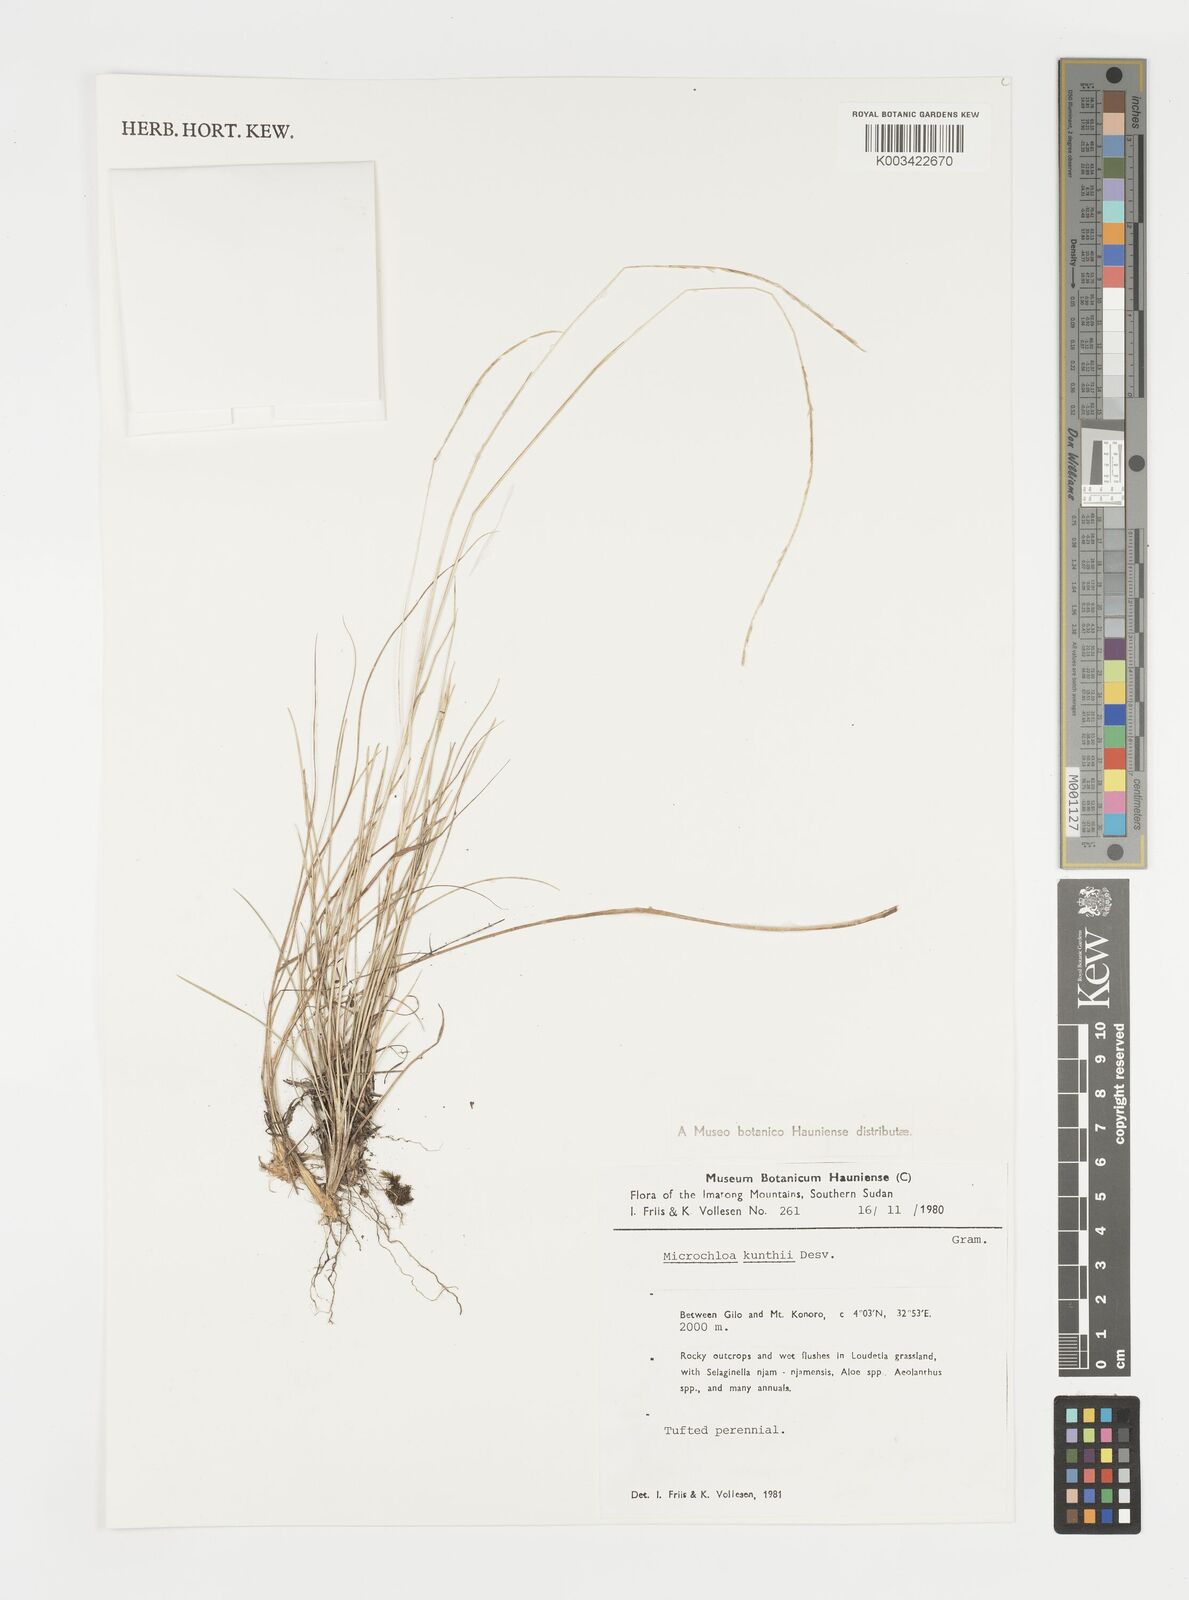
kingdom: Plantae
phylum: Tracheophyta
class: Liliopsida
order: Poales
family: Poaceae
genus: Microchloa
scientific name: Microchloa kunthii
